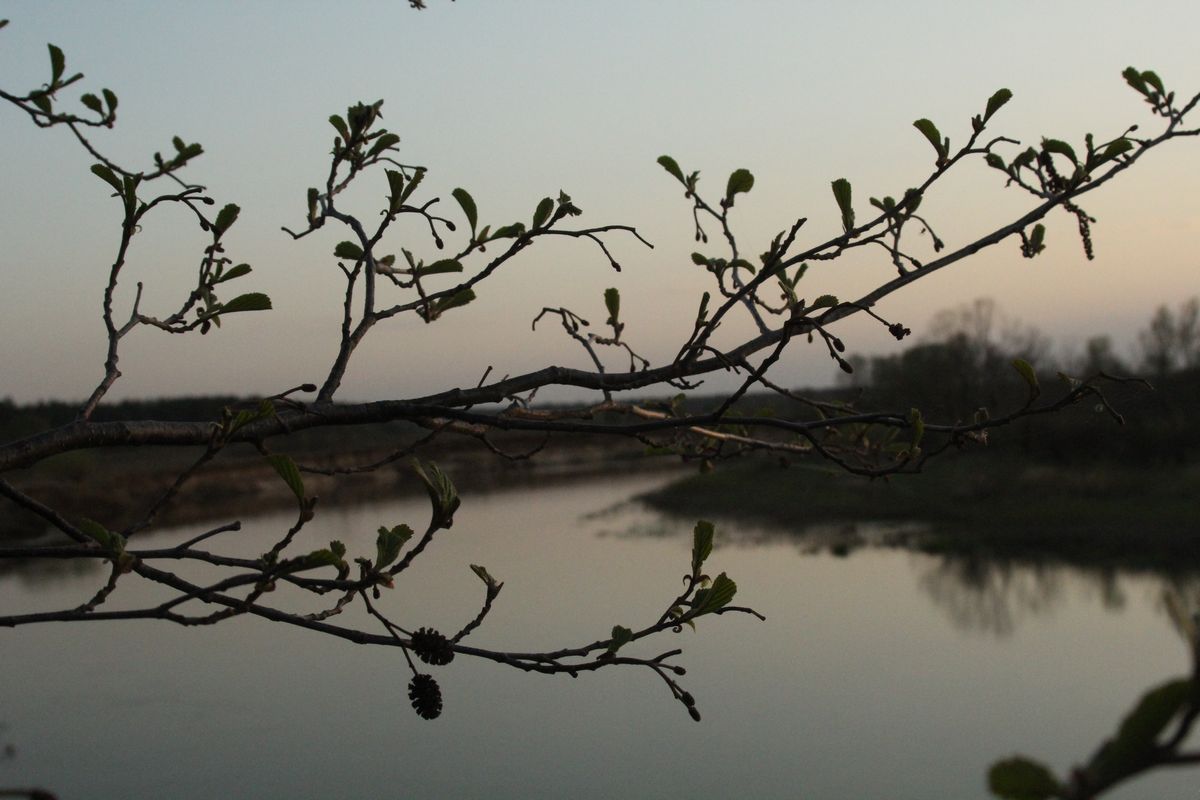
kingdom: Plantae
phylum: Tracheophyta
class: Magnoliopsida
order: Fagales
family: Betulaceae
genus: Alnus
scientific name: Alnus glutinosa
